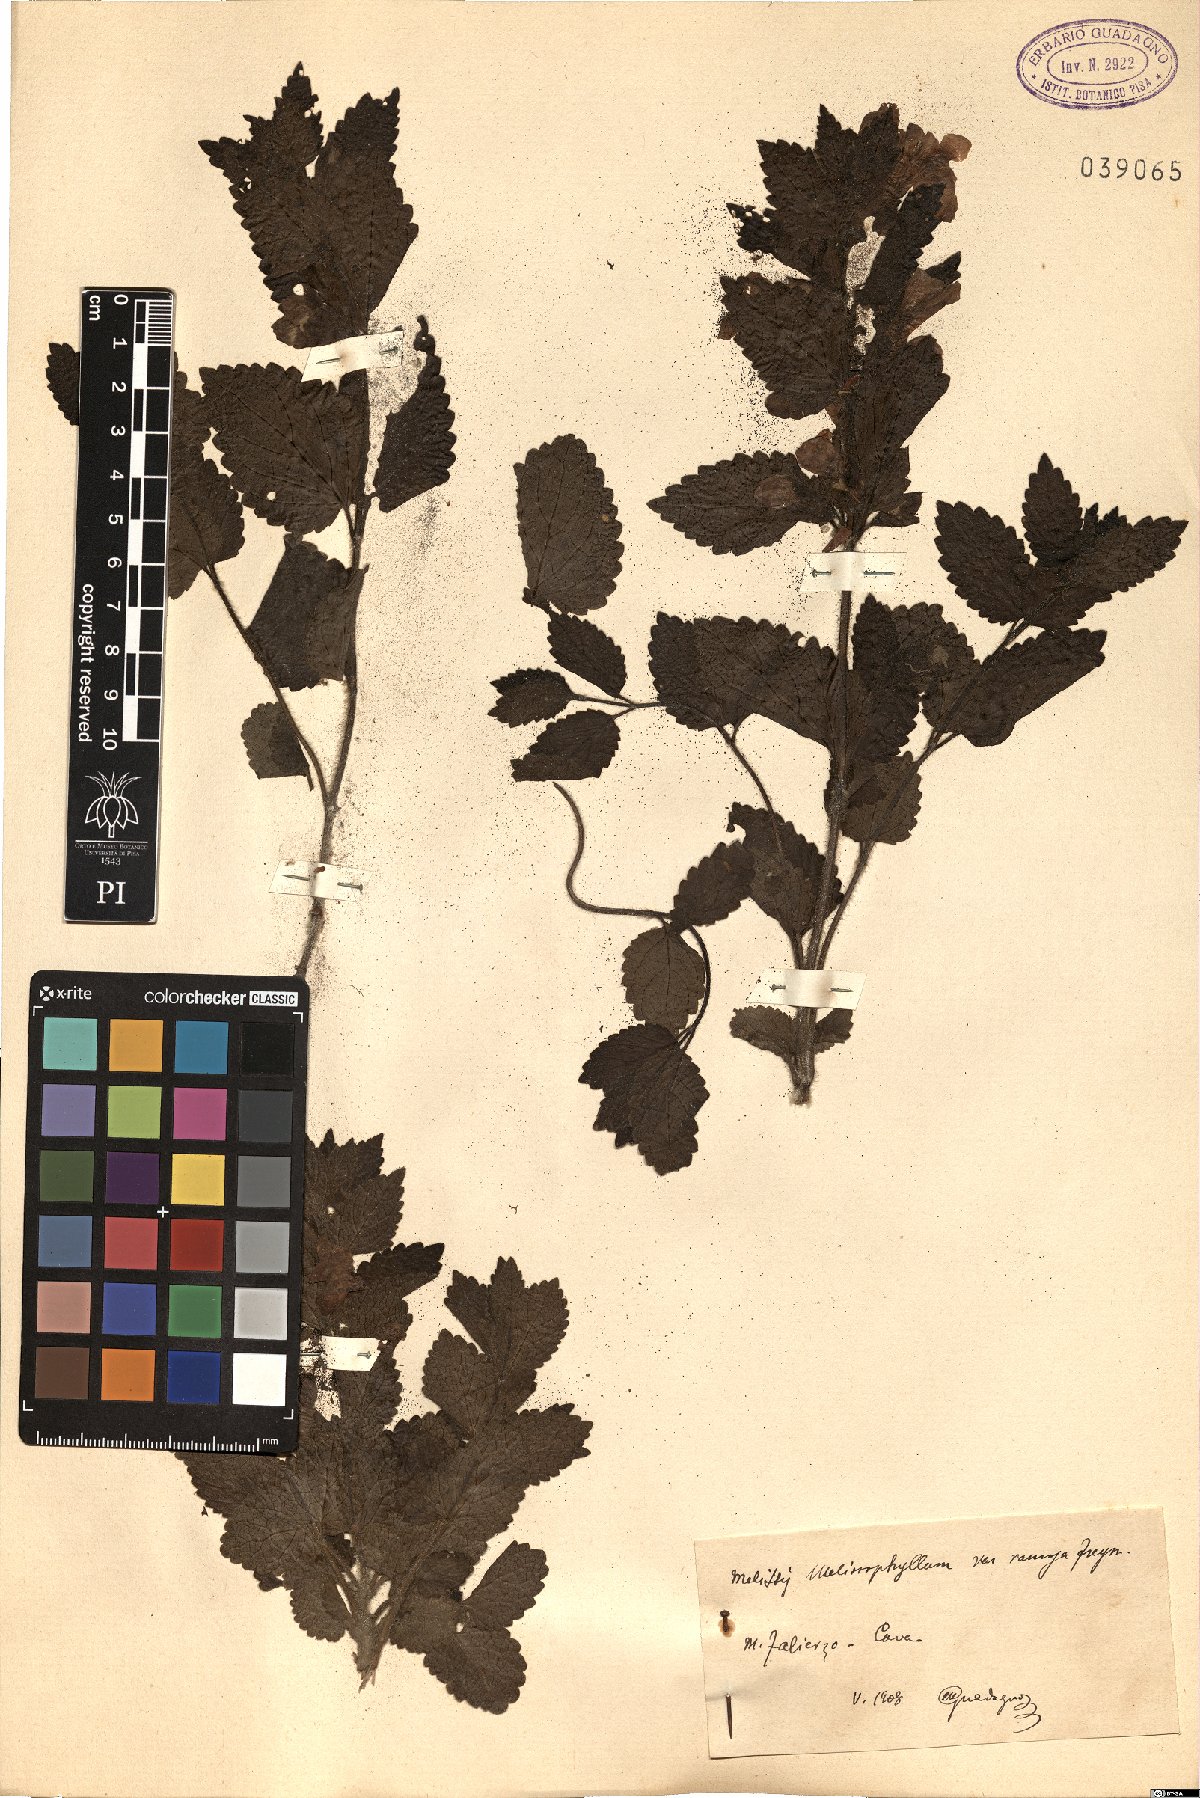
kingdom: Plantae
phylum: Tracheophyta
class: Magnoliopsida
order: Lamiales
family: Lamiaceae
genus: Melittis
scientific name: Melittis melissophyllum
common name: Bastard balm
